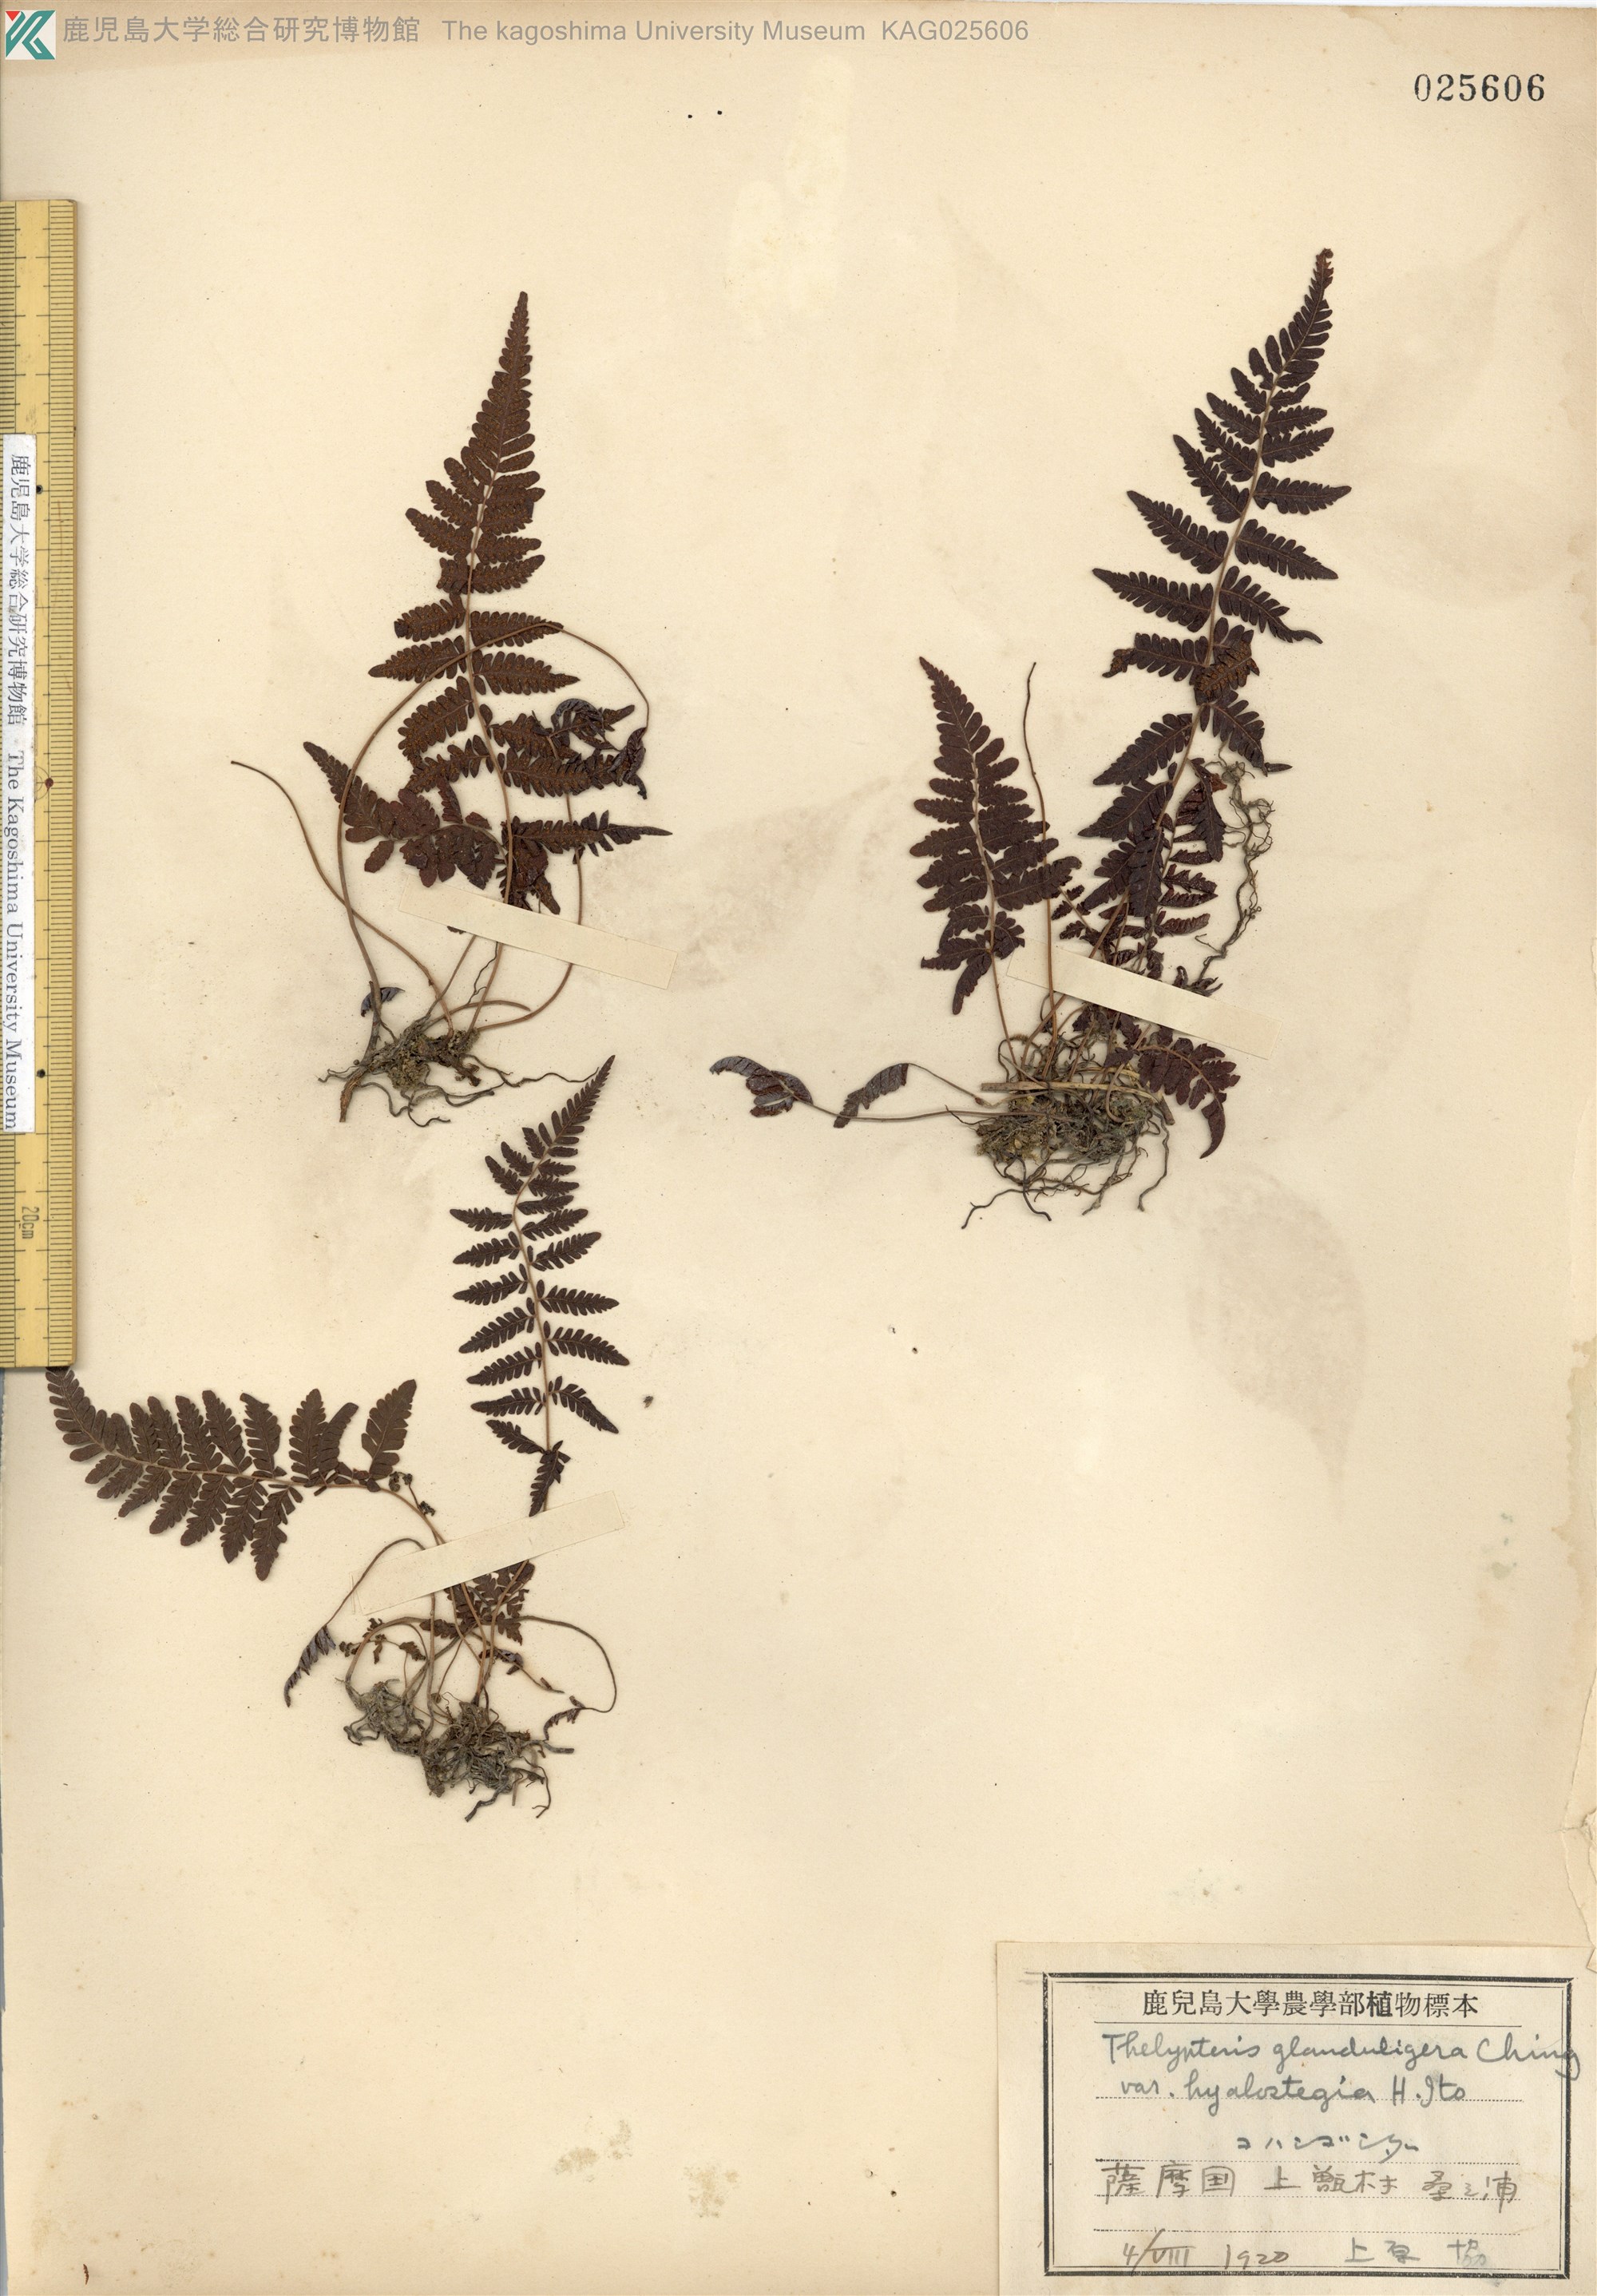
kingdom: Plantae
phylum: Tracheophyta
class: Polypodiopsida
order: Polypodiales
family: Thelypteridaceae
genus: Amauropelta
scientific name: Amauropelta angustifrons
